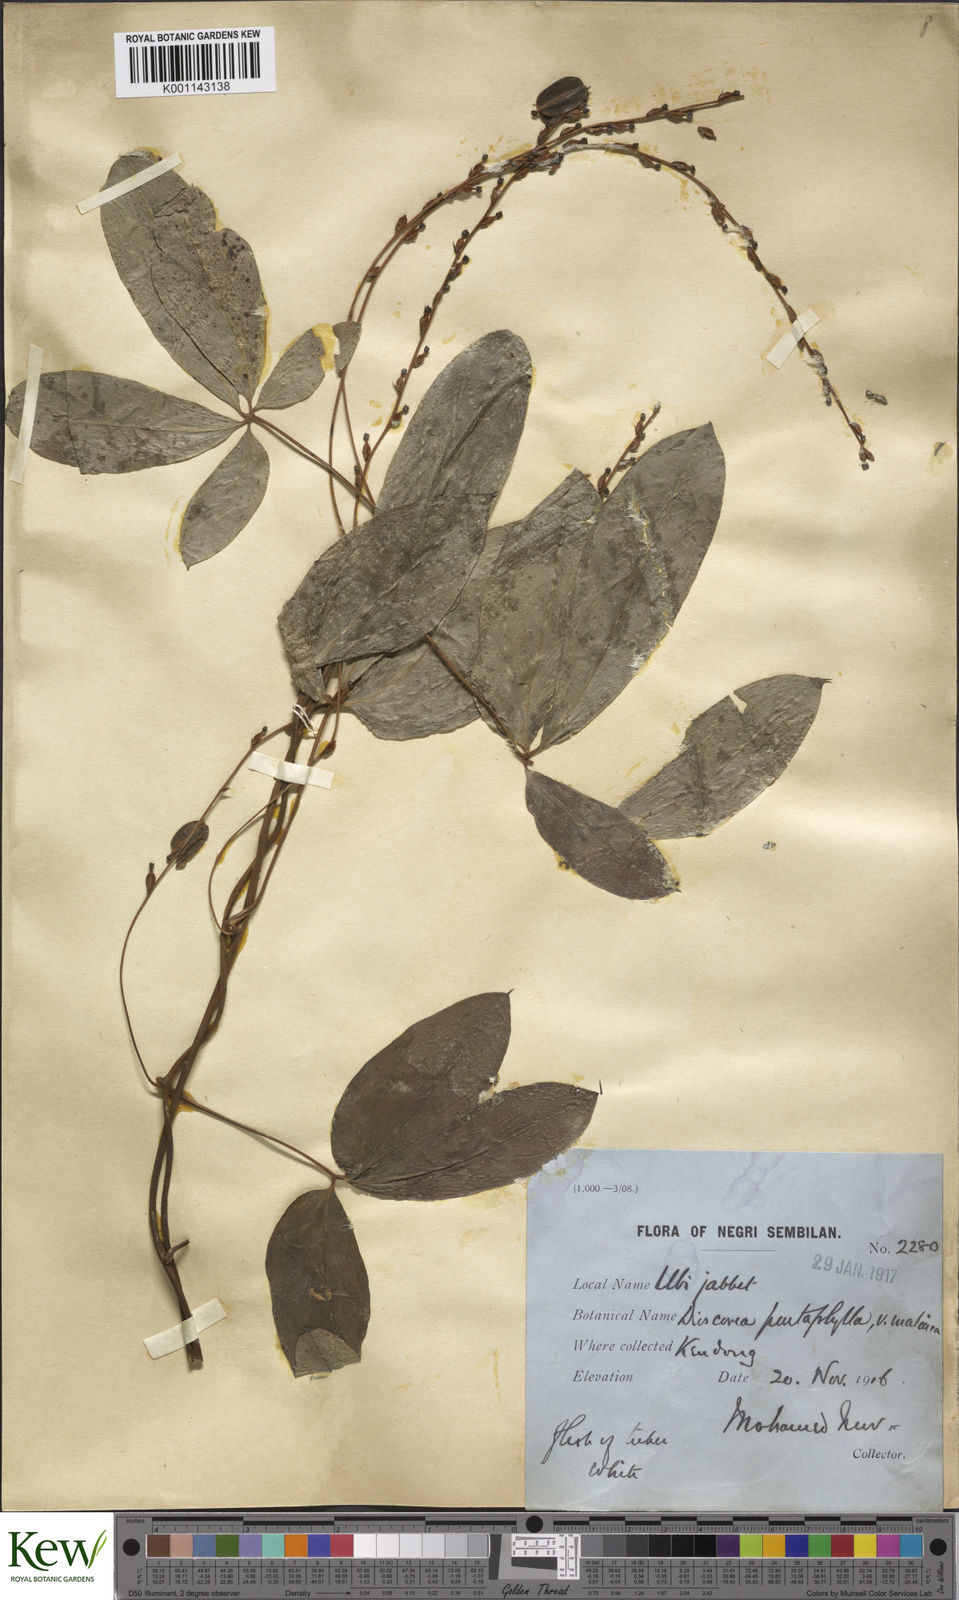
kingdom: Plantae
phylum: Tracheophyta
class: Liliopsida
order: Dioscoreales
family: Dioscoreaceae
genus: Dioscorea
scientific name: Dioscorea pentaphylla
